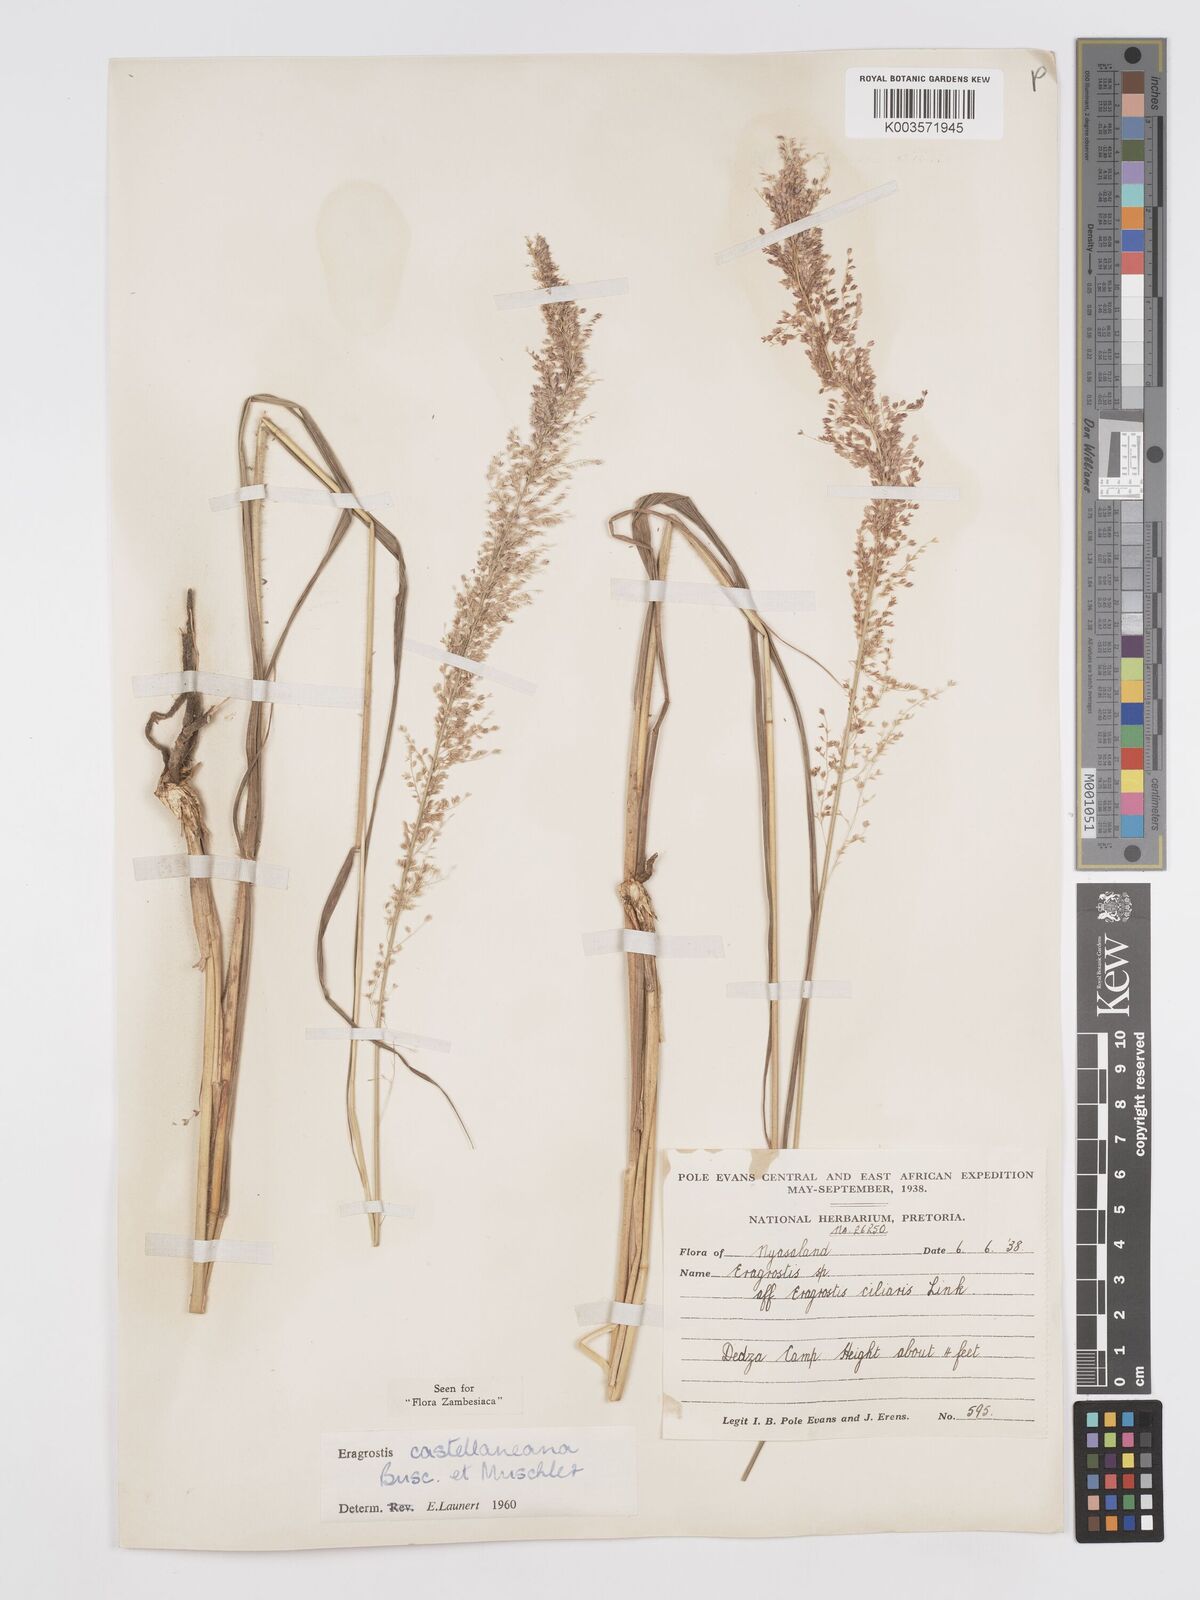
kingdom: Plantae
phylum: Tracheophyta
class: Liliopsida
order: Poales
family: Poaceae
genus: Eragrostis
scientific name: Eragrostis castellaneana
